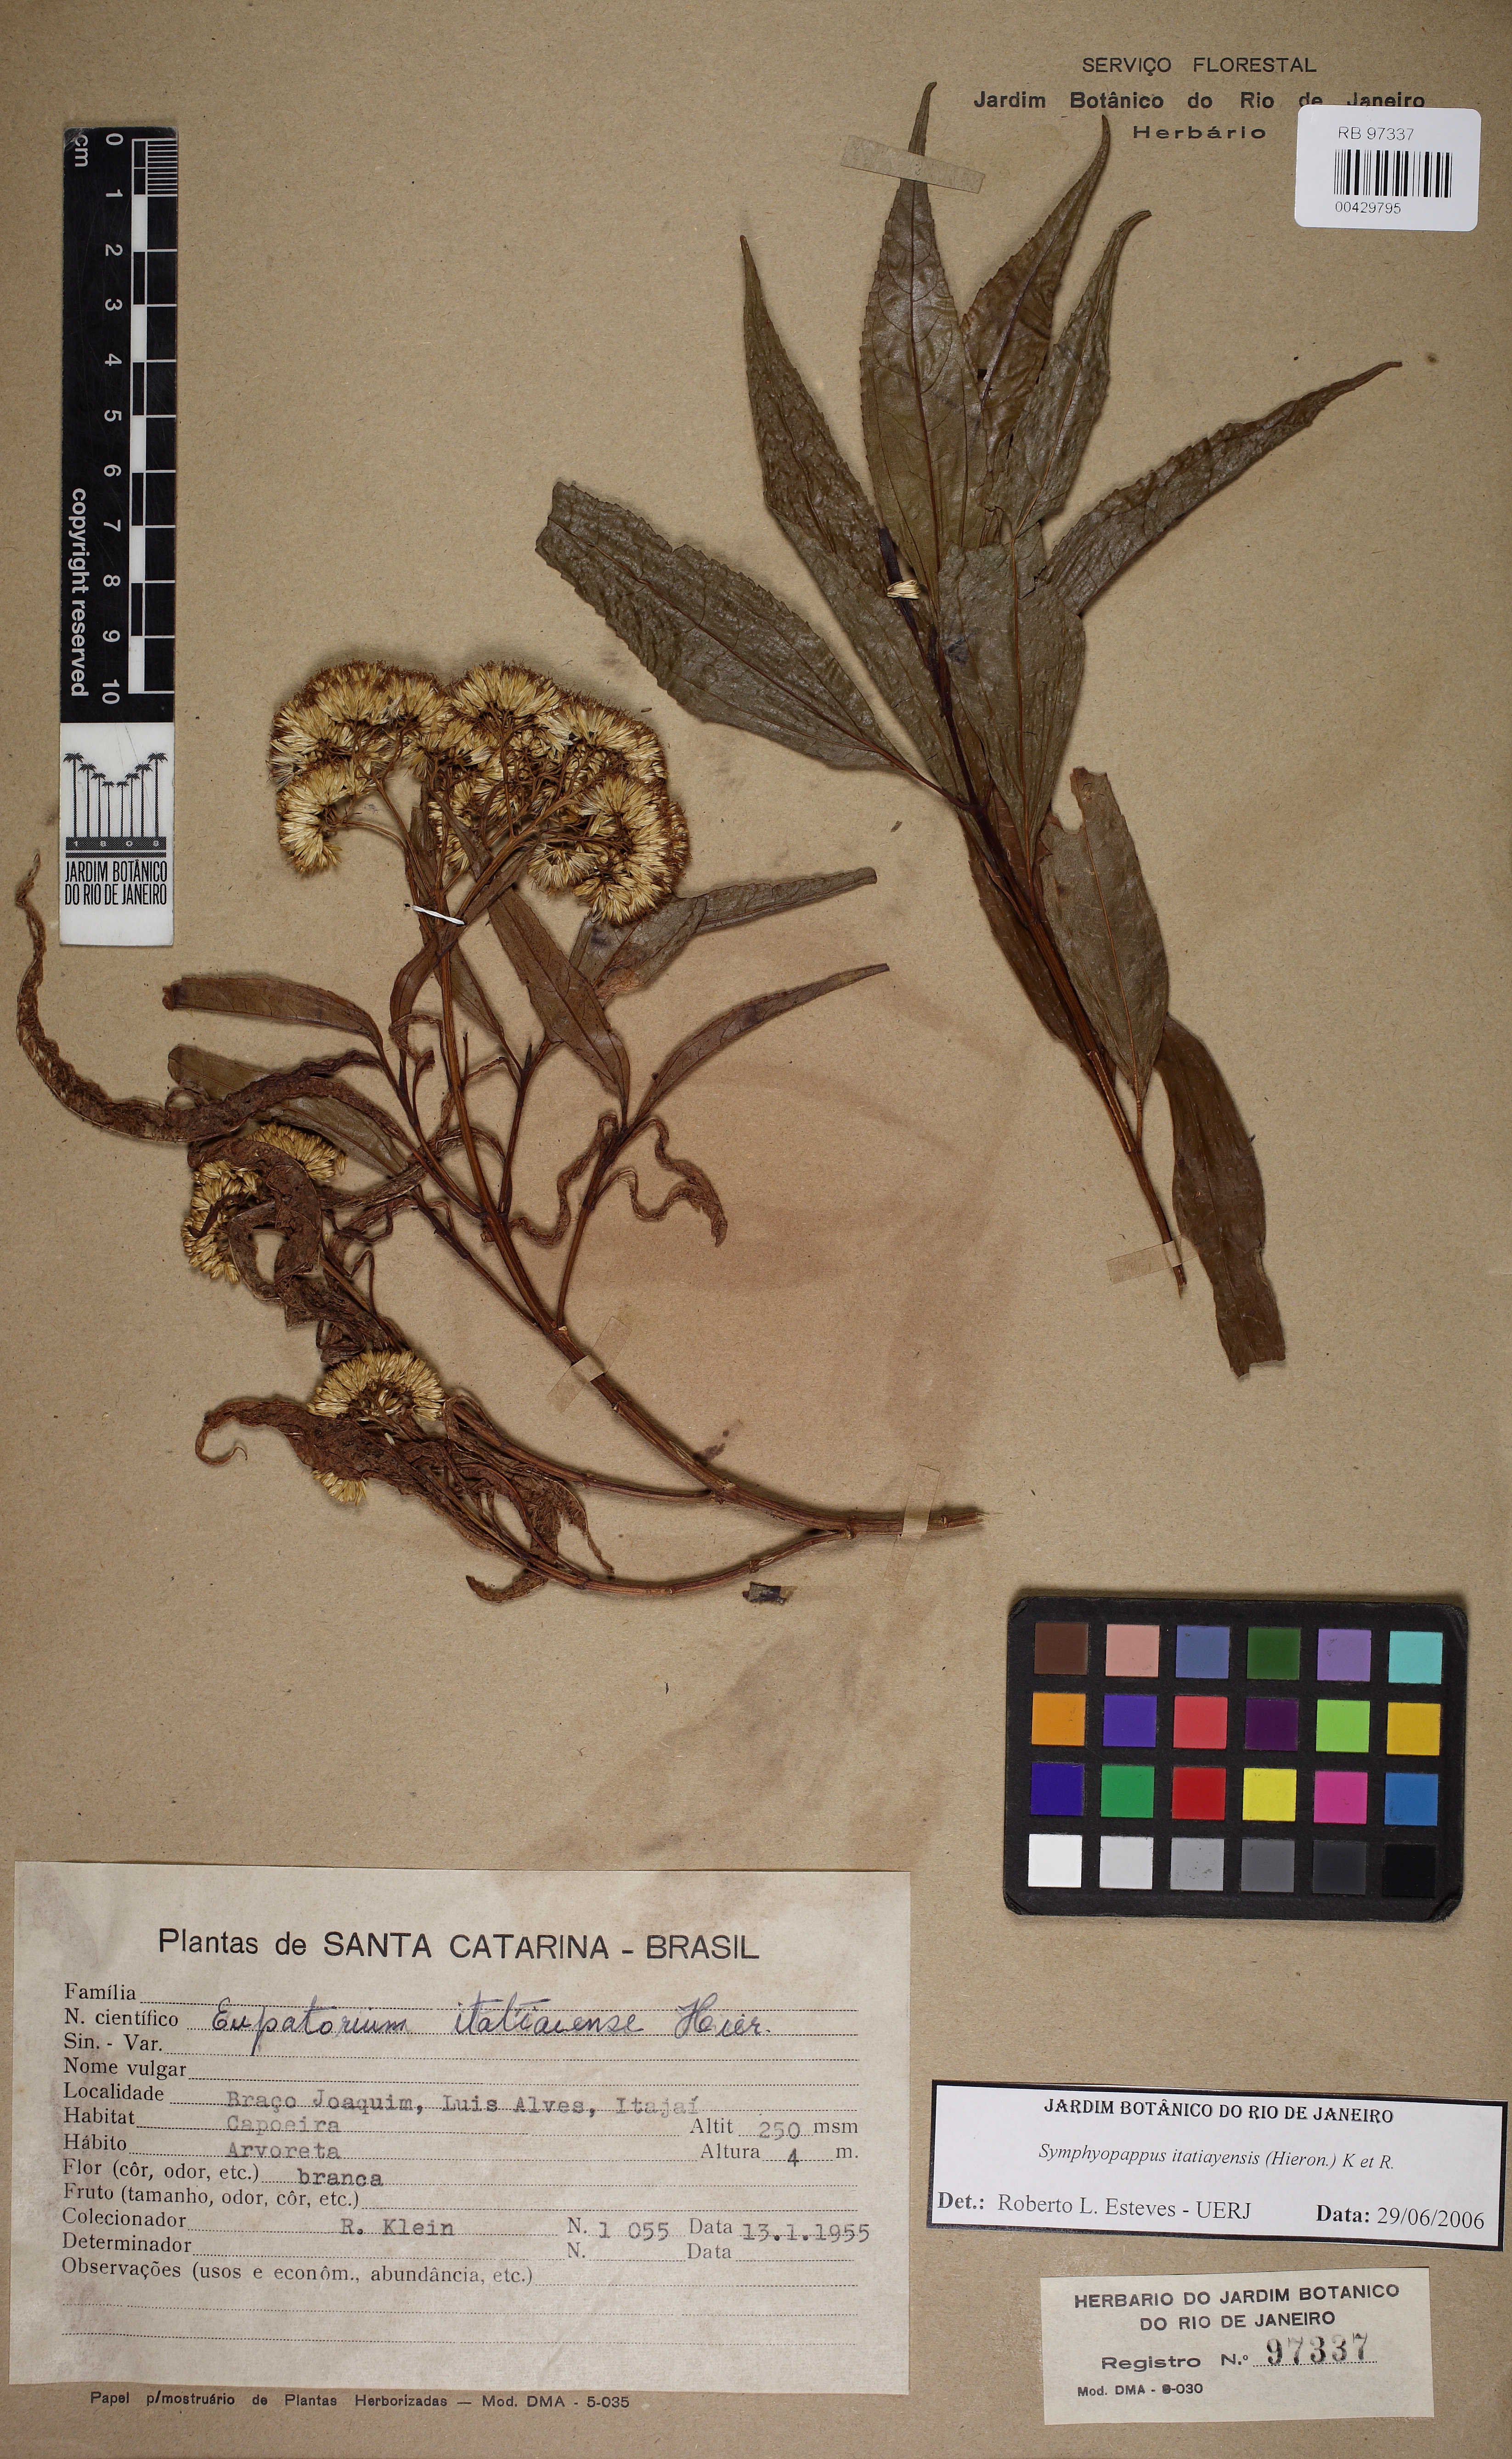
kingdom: Plantae
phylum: Tracheophyta
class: Magnoliopsida
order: Asterales
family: Asteraceae
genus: Symphyopappus
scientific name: Symphyopappus itatiayensis
